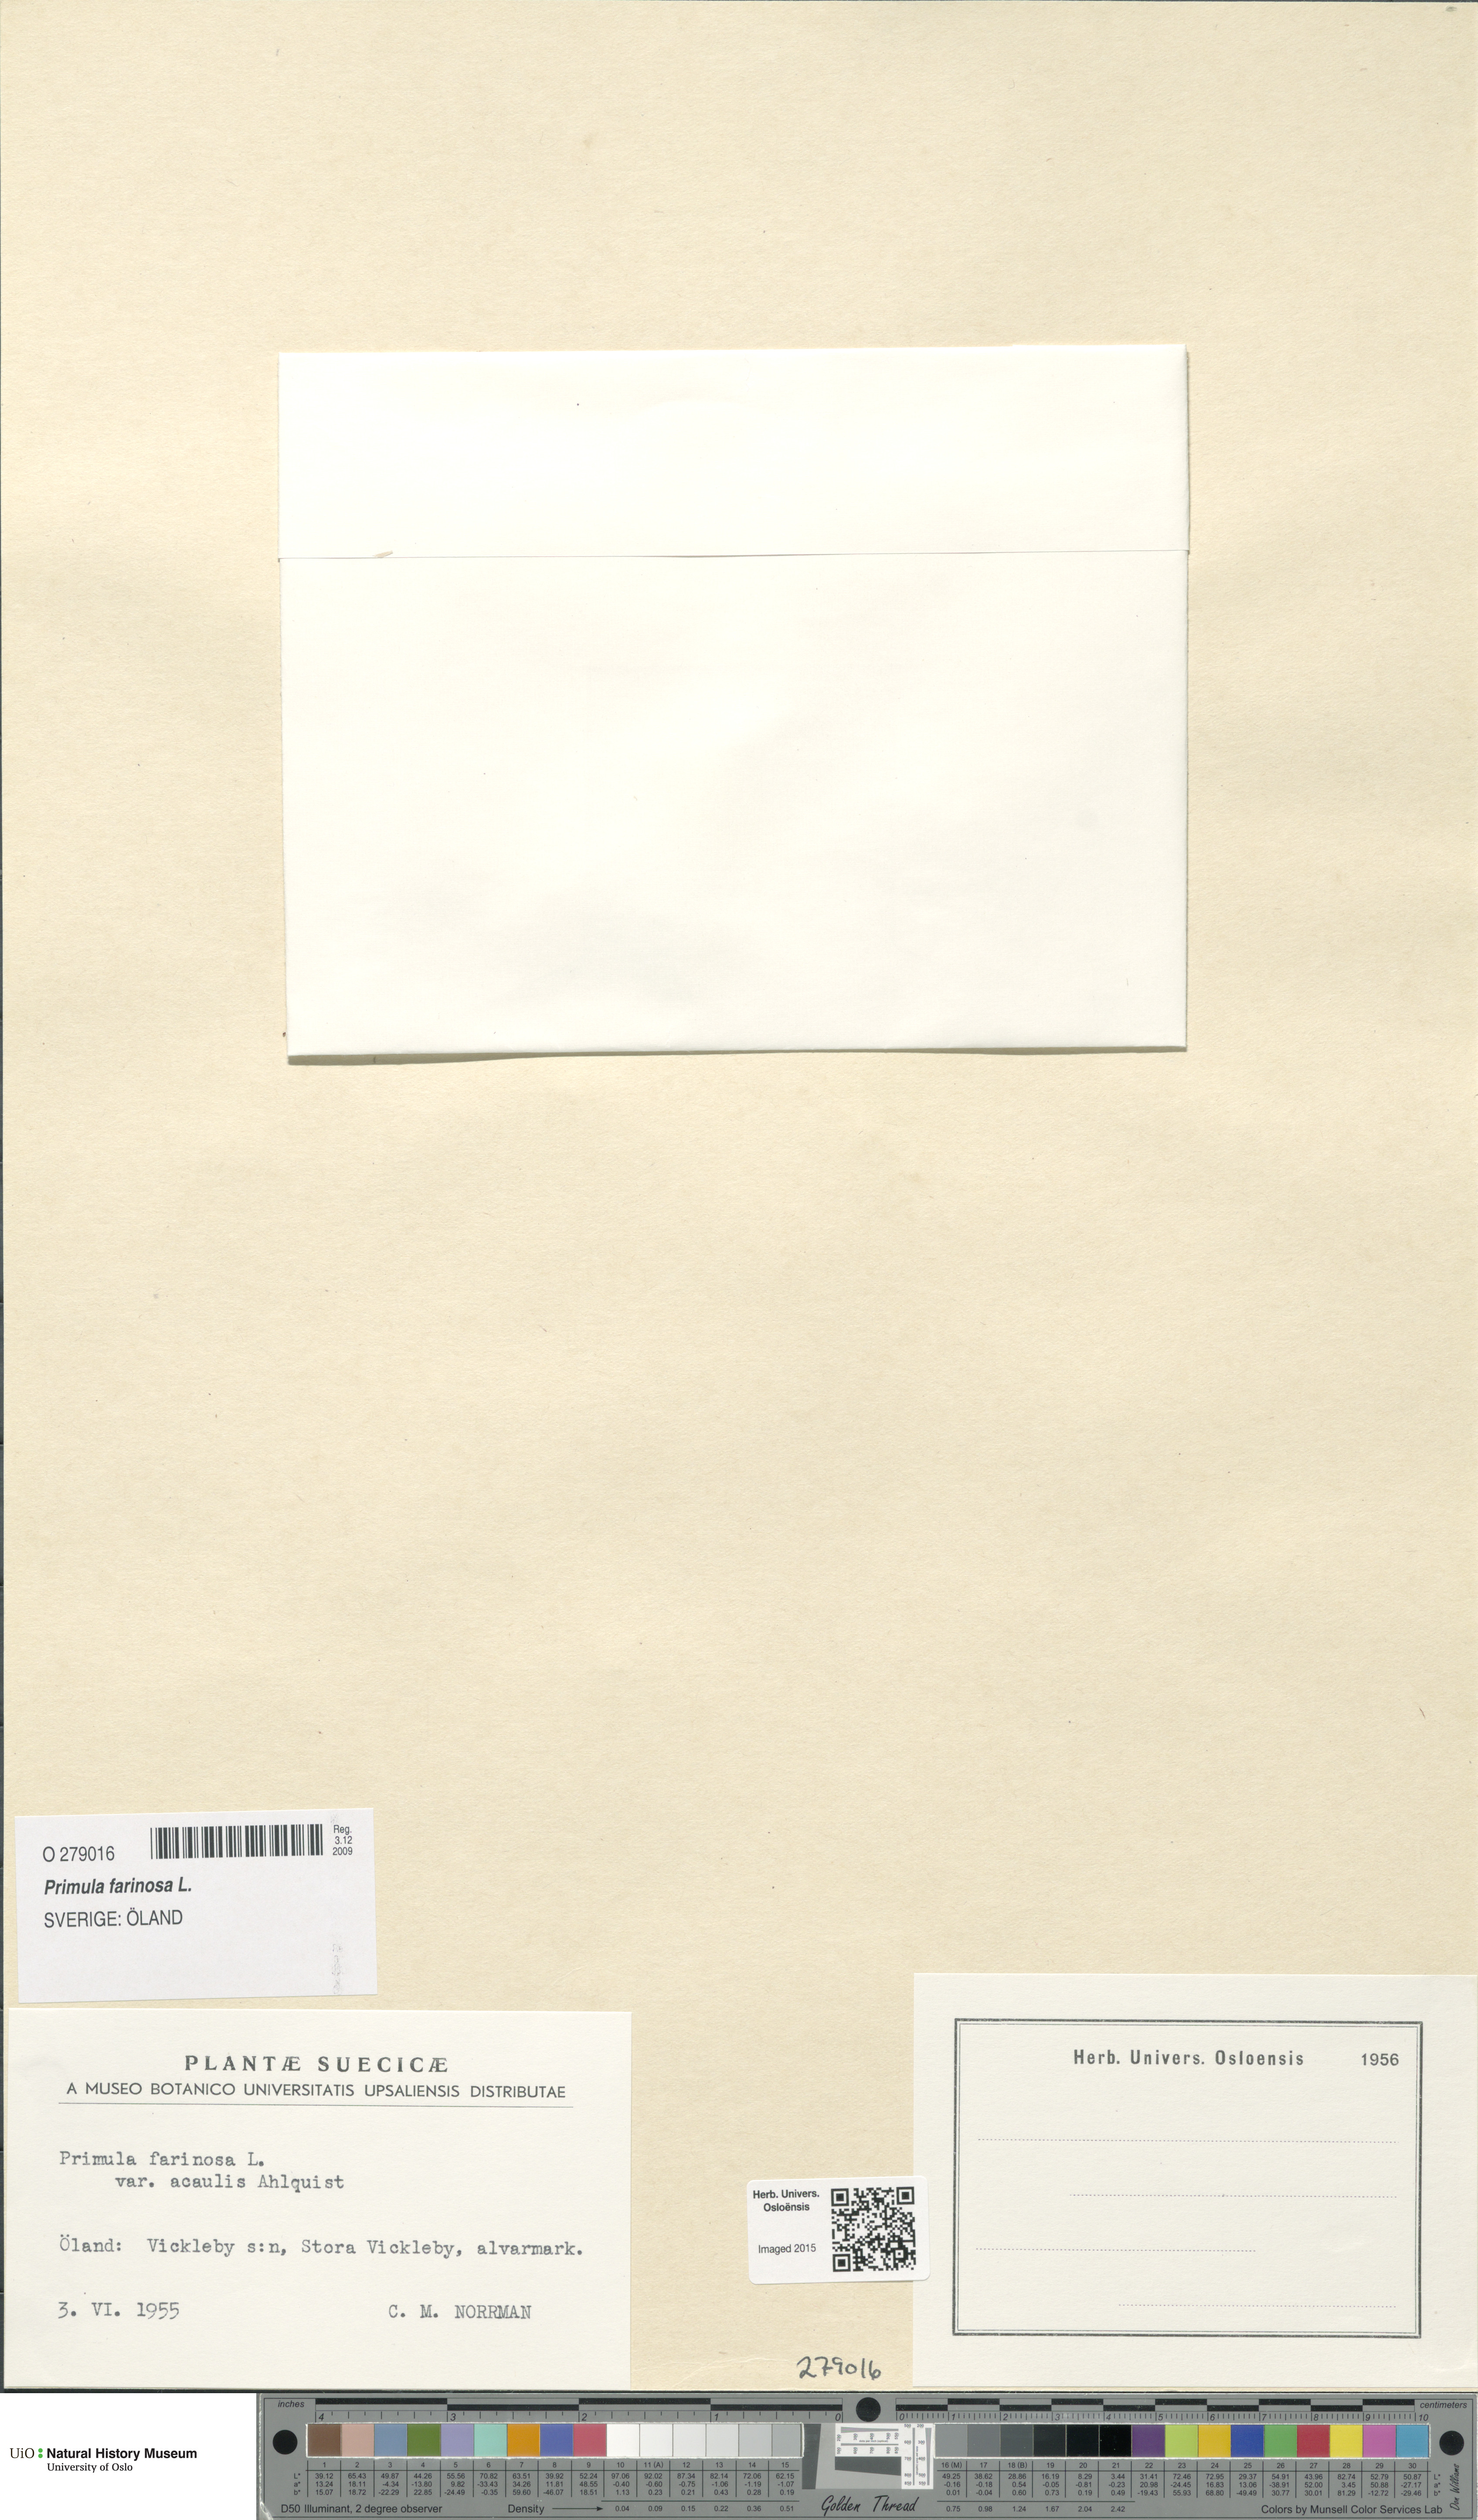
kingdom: Plantae
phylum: Tracheophyta
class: Magnoliopsida
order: Ericales
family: Primulaceae
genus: Primula
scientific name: Primula farinosa
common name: Bird's-eye primrose
